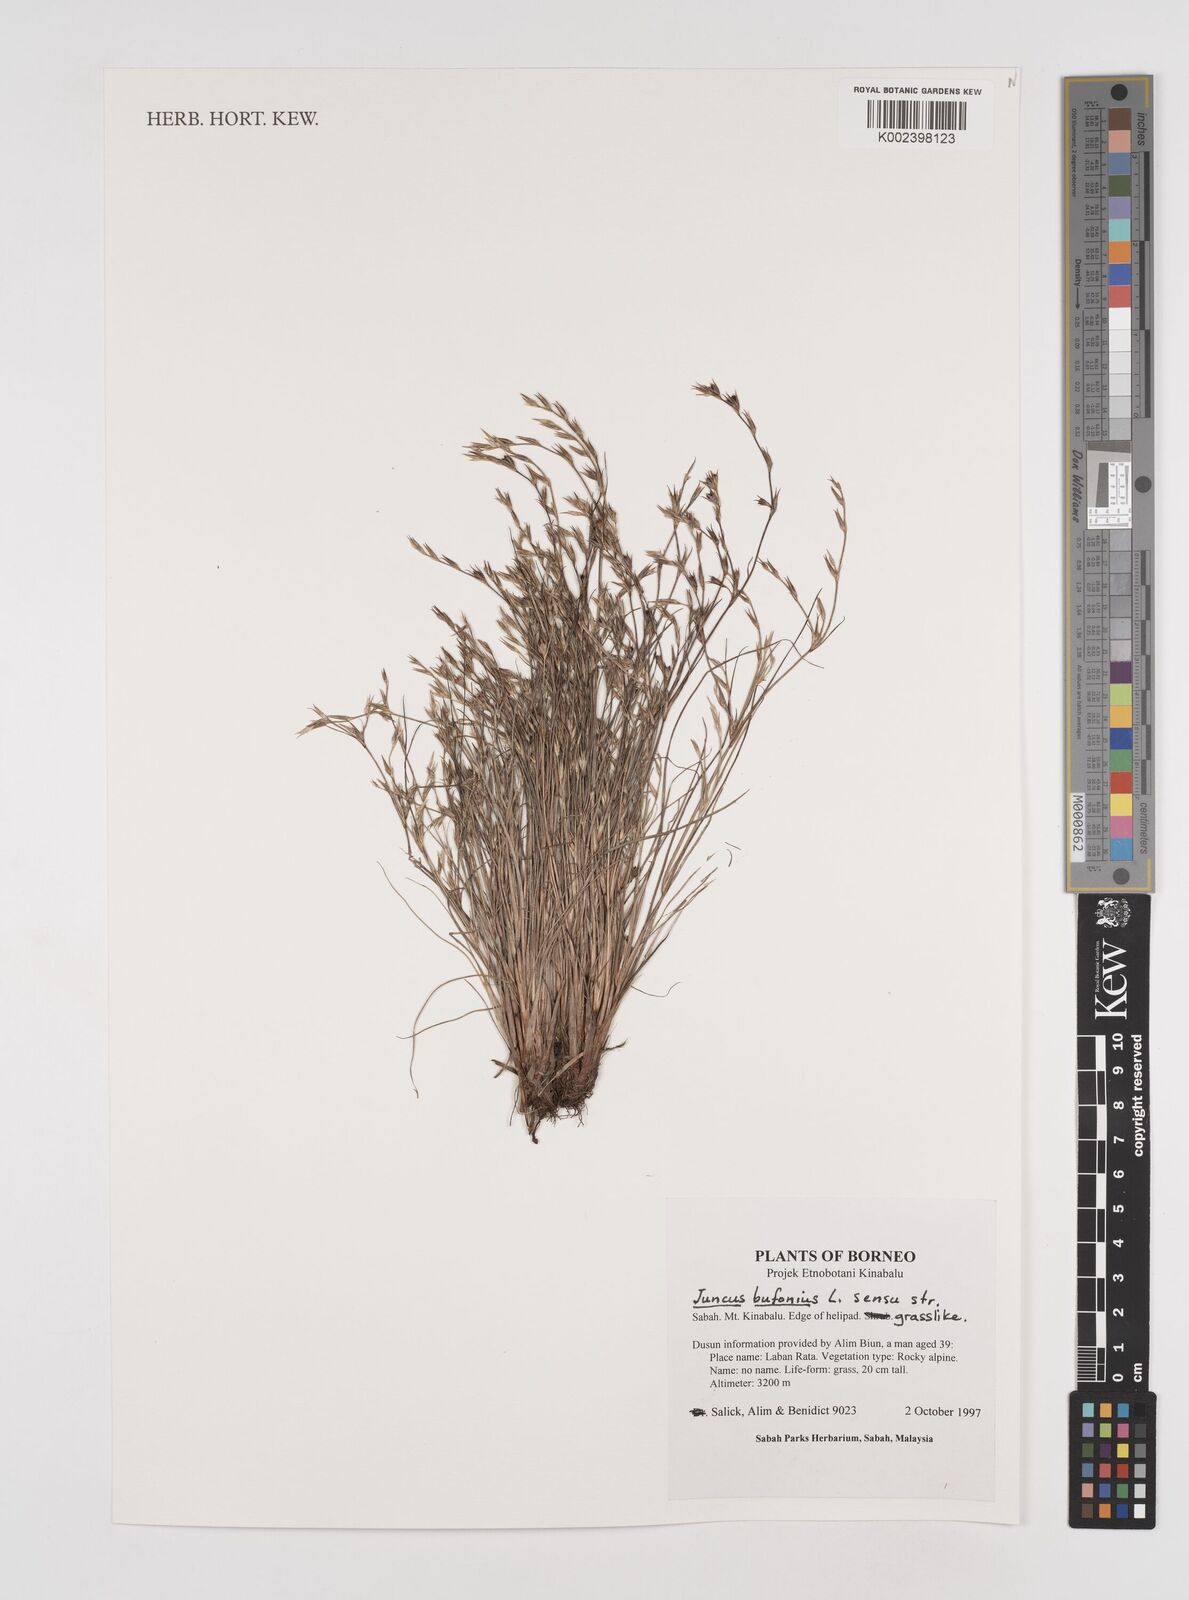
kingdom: Plantae
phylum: Tracheophyta
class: Liliopsida
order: Poales
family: Juncaceae
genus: Juncus
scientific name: Juncus bufonius
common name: Toad rush
